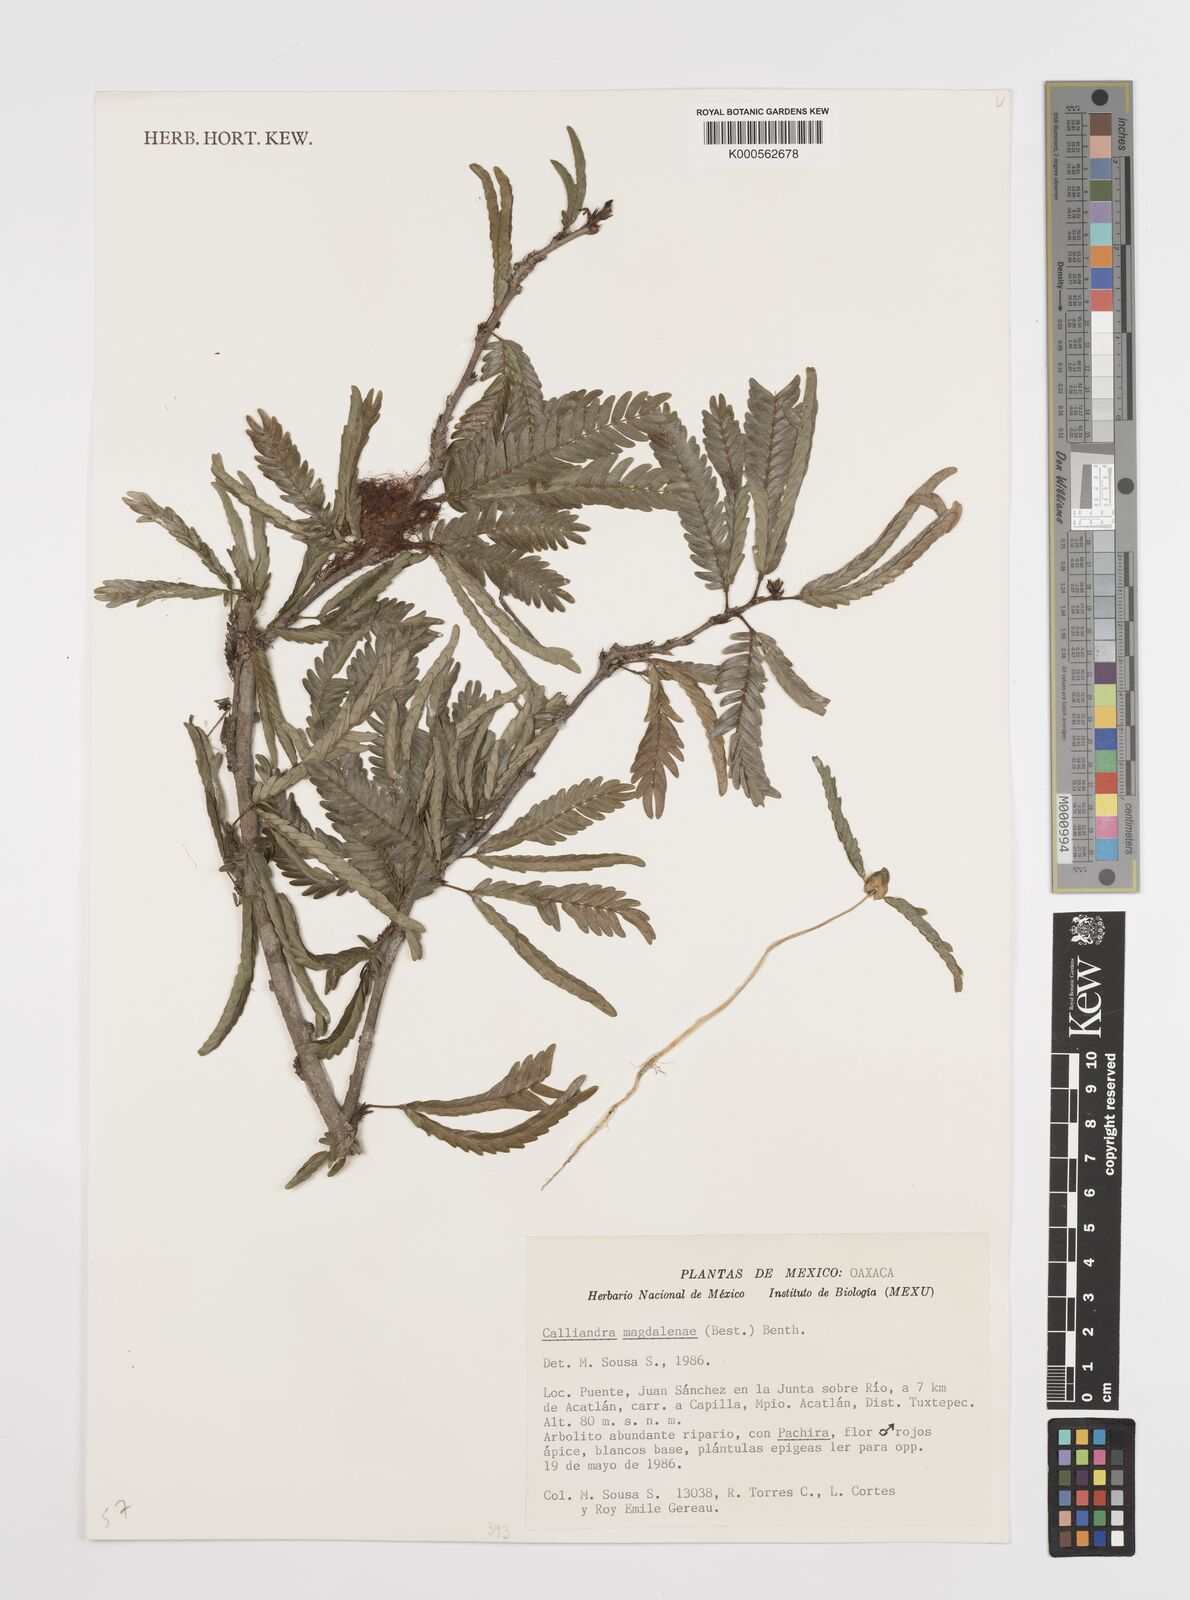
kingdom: Plantae
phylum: Tracheophyta
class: Magnoliopsida
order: Fabales
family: Fabaceae
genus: Calliandra
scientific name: Calliandra magdalenae
